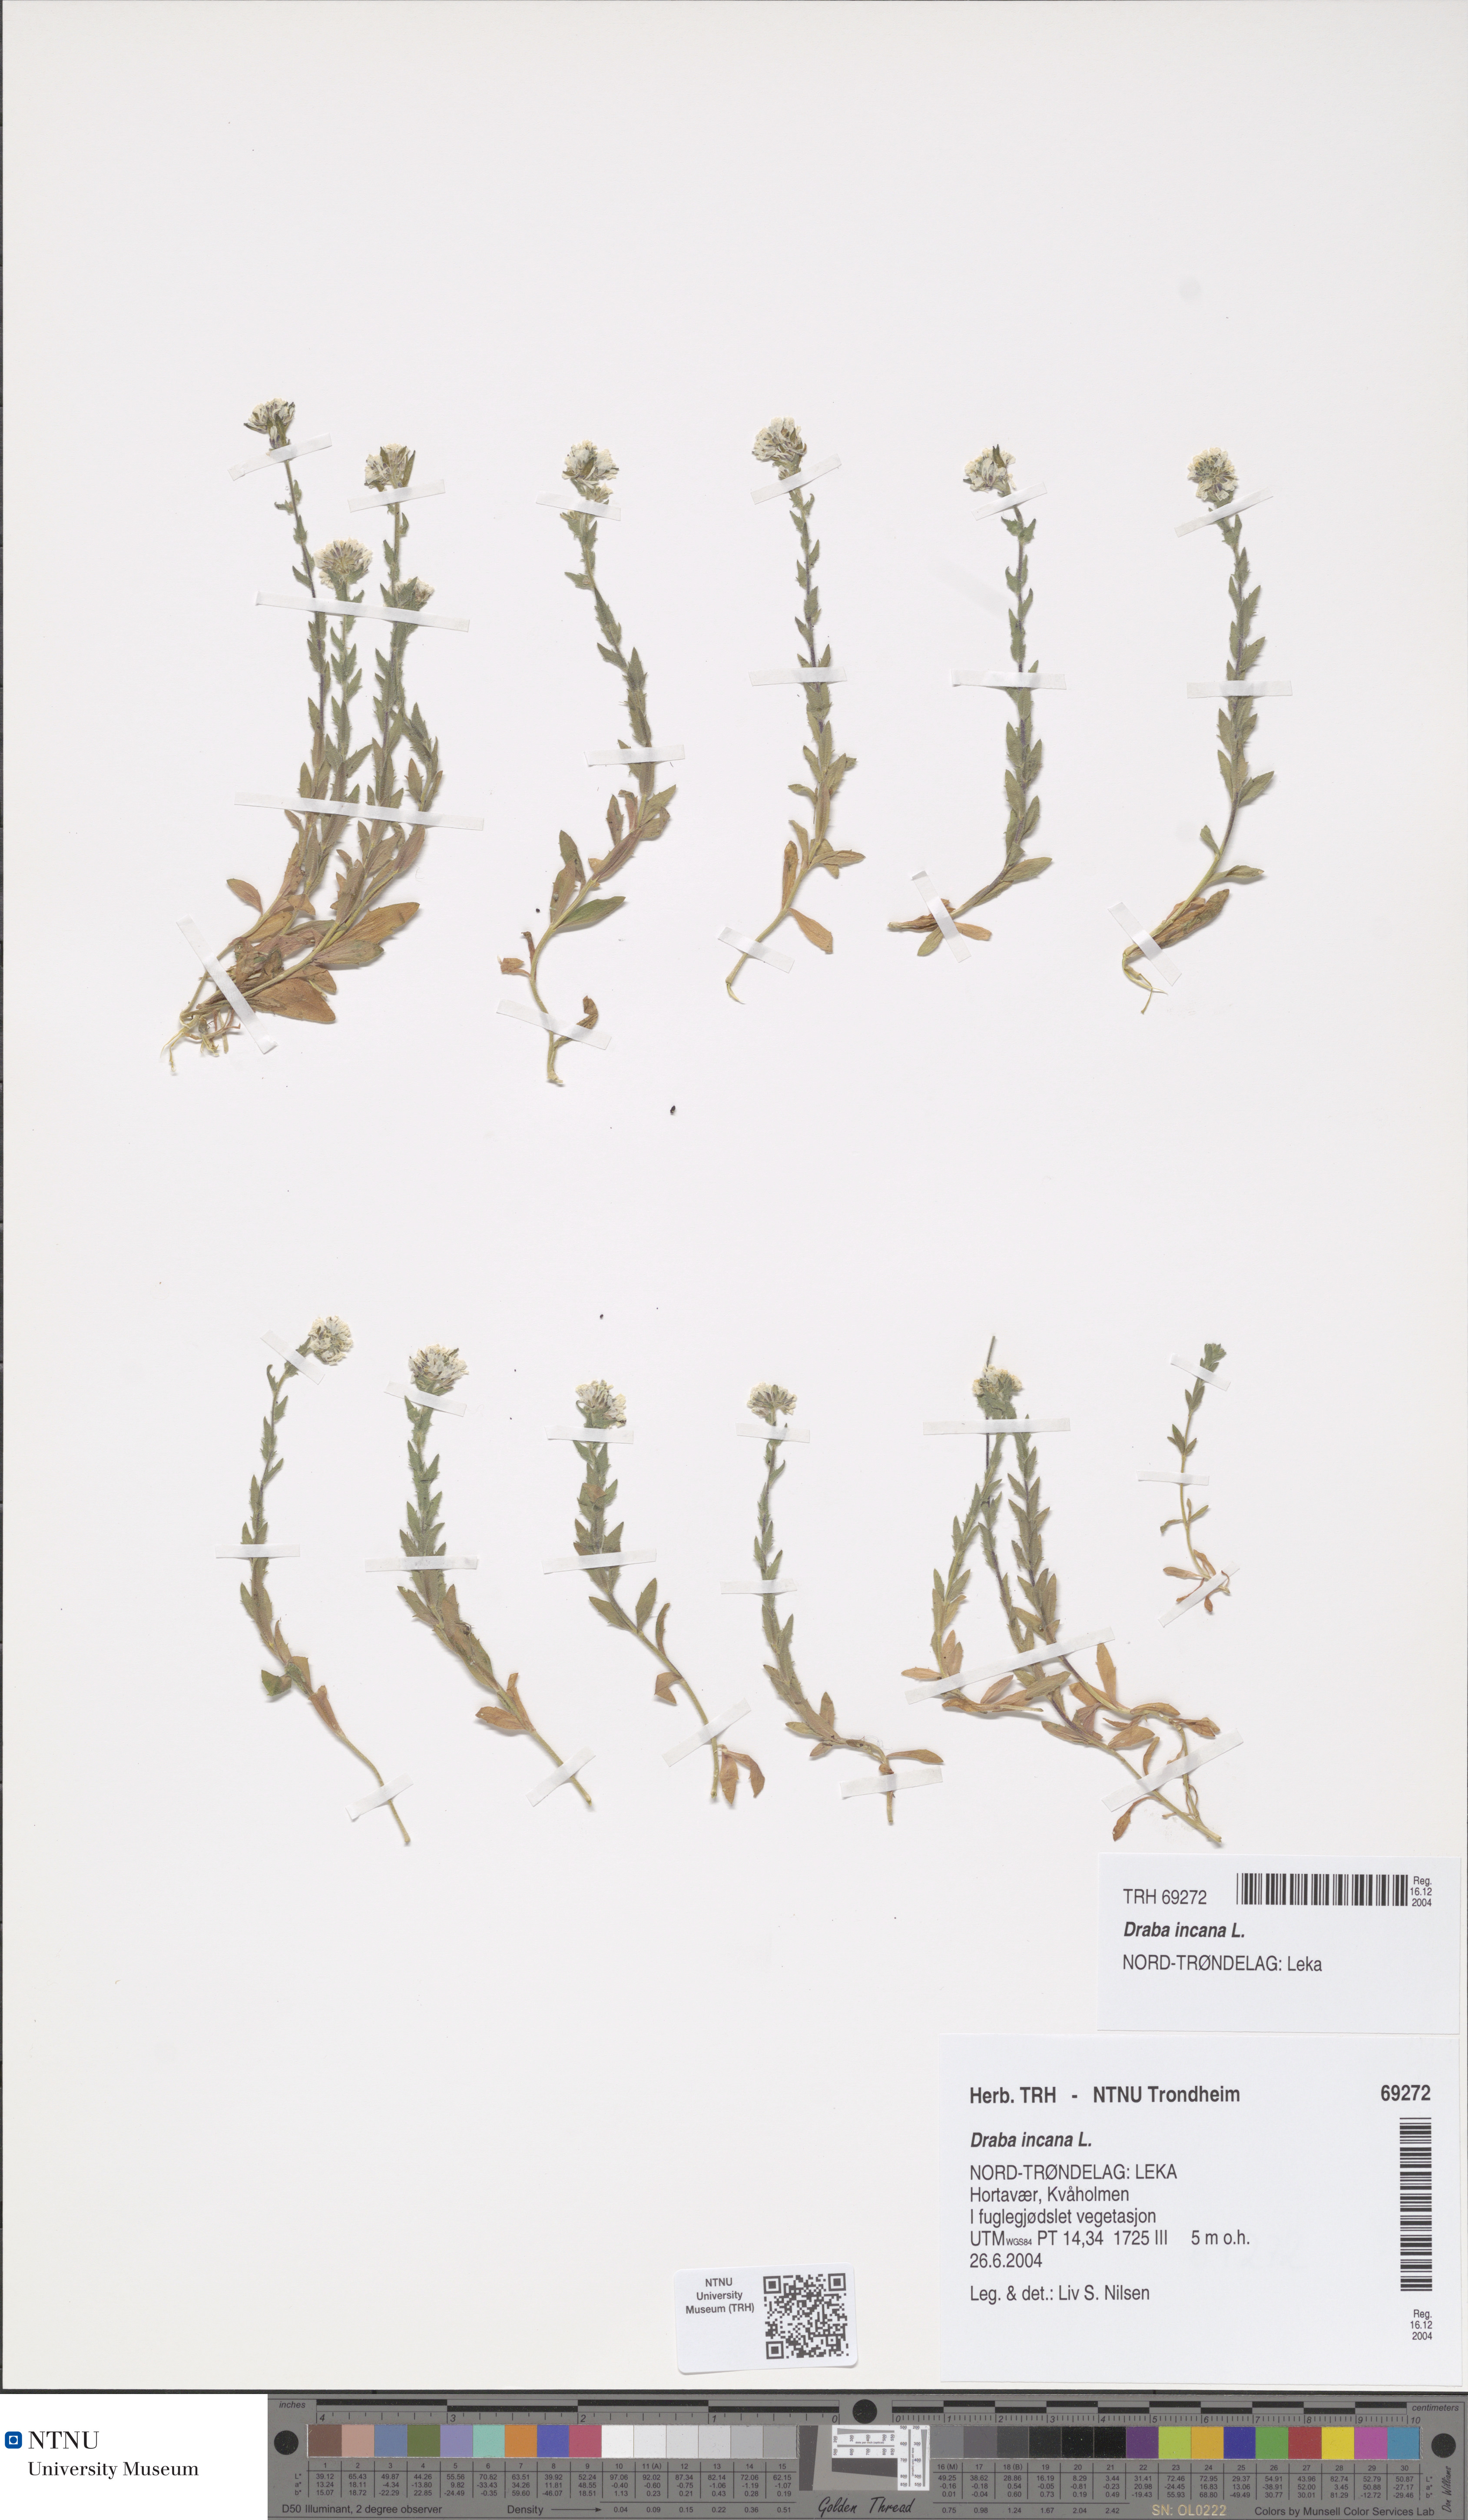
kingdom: Plantae
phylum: Tracheophyta
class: Magnoliopsida
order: Brassicales
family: Brassicaceae
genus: Draba
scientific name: Draba incana
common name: Hoary whitlow-grass
